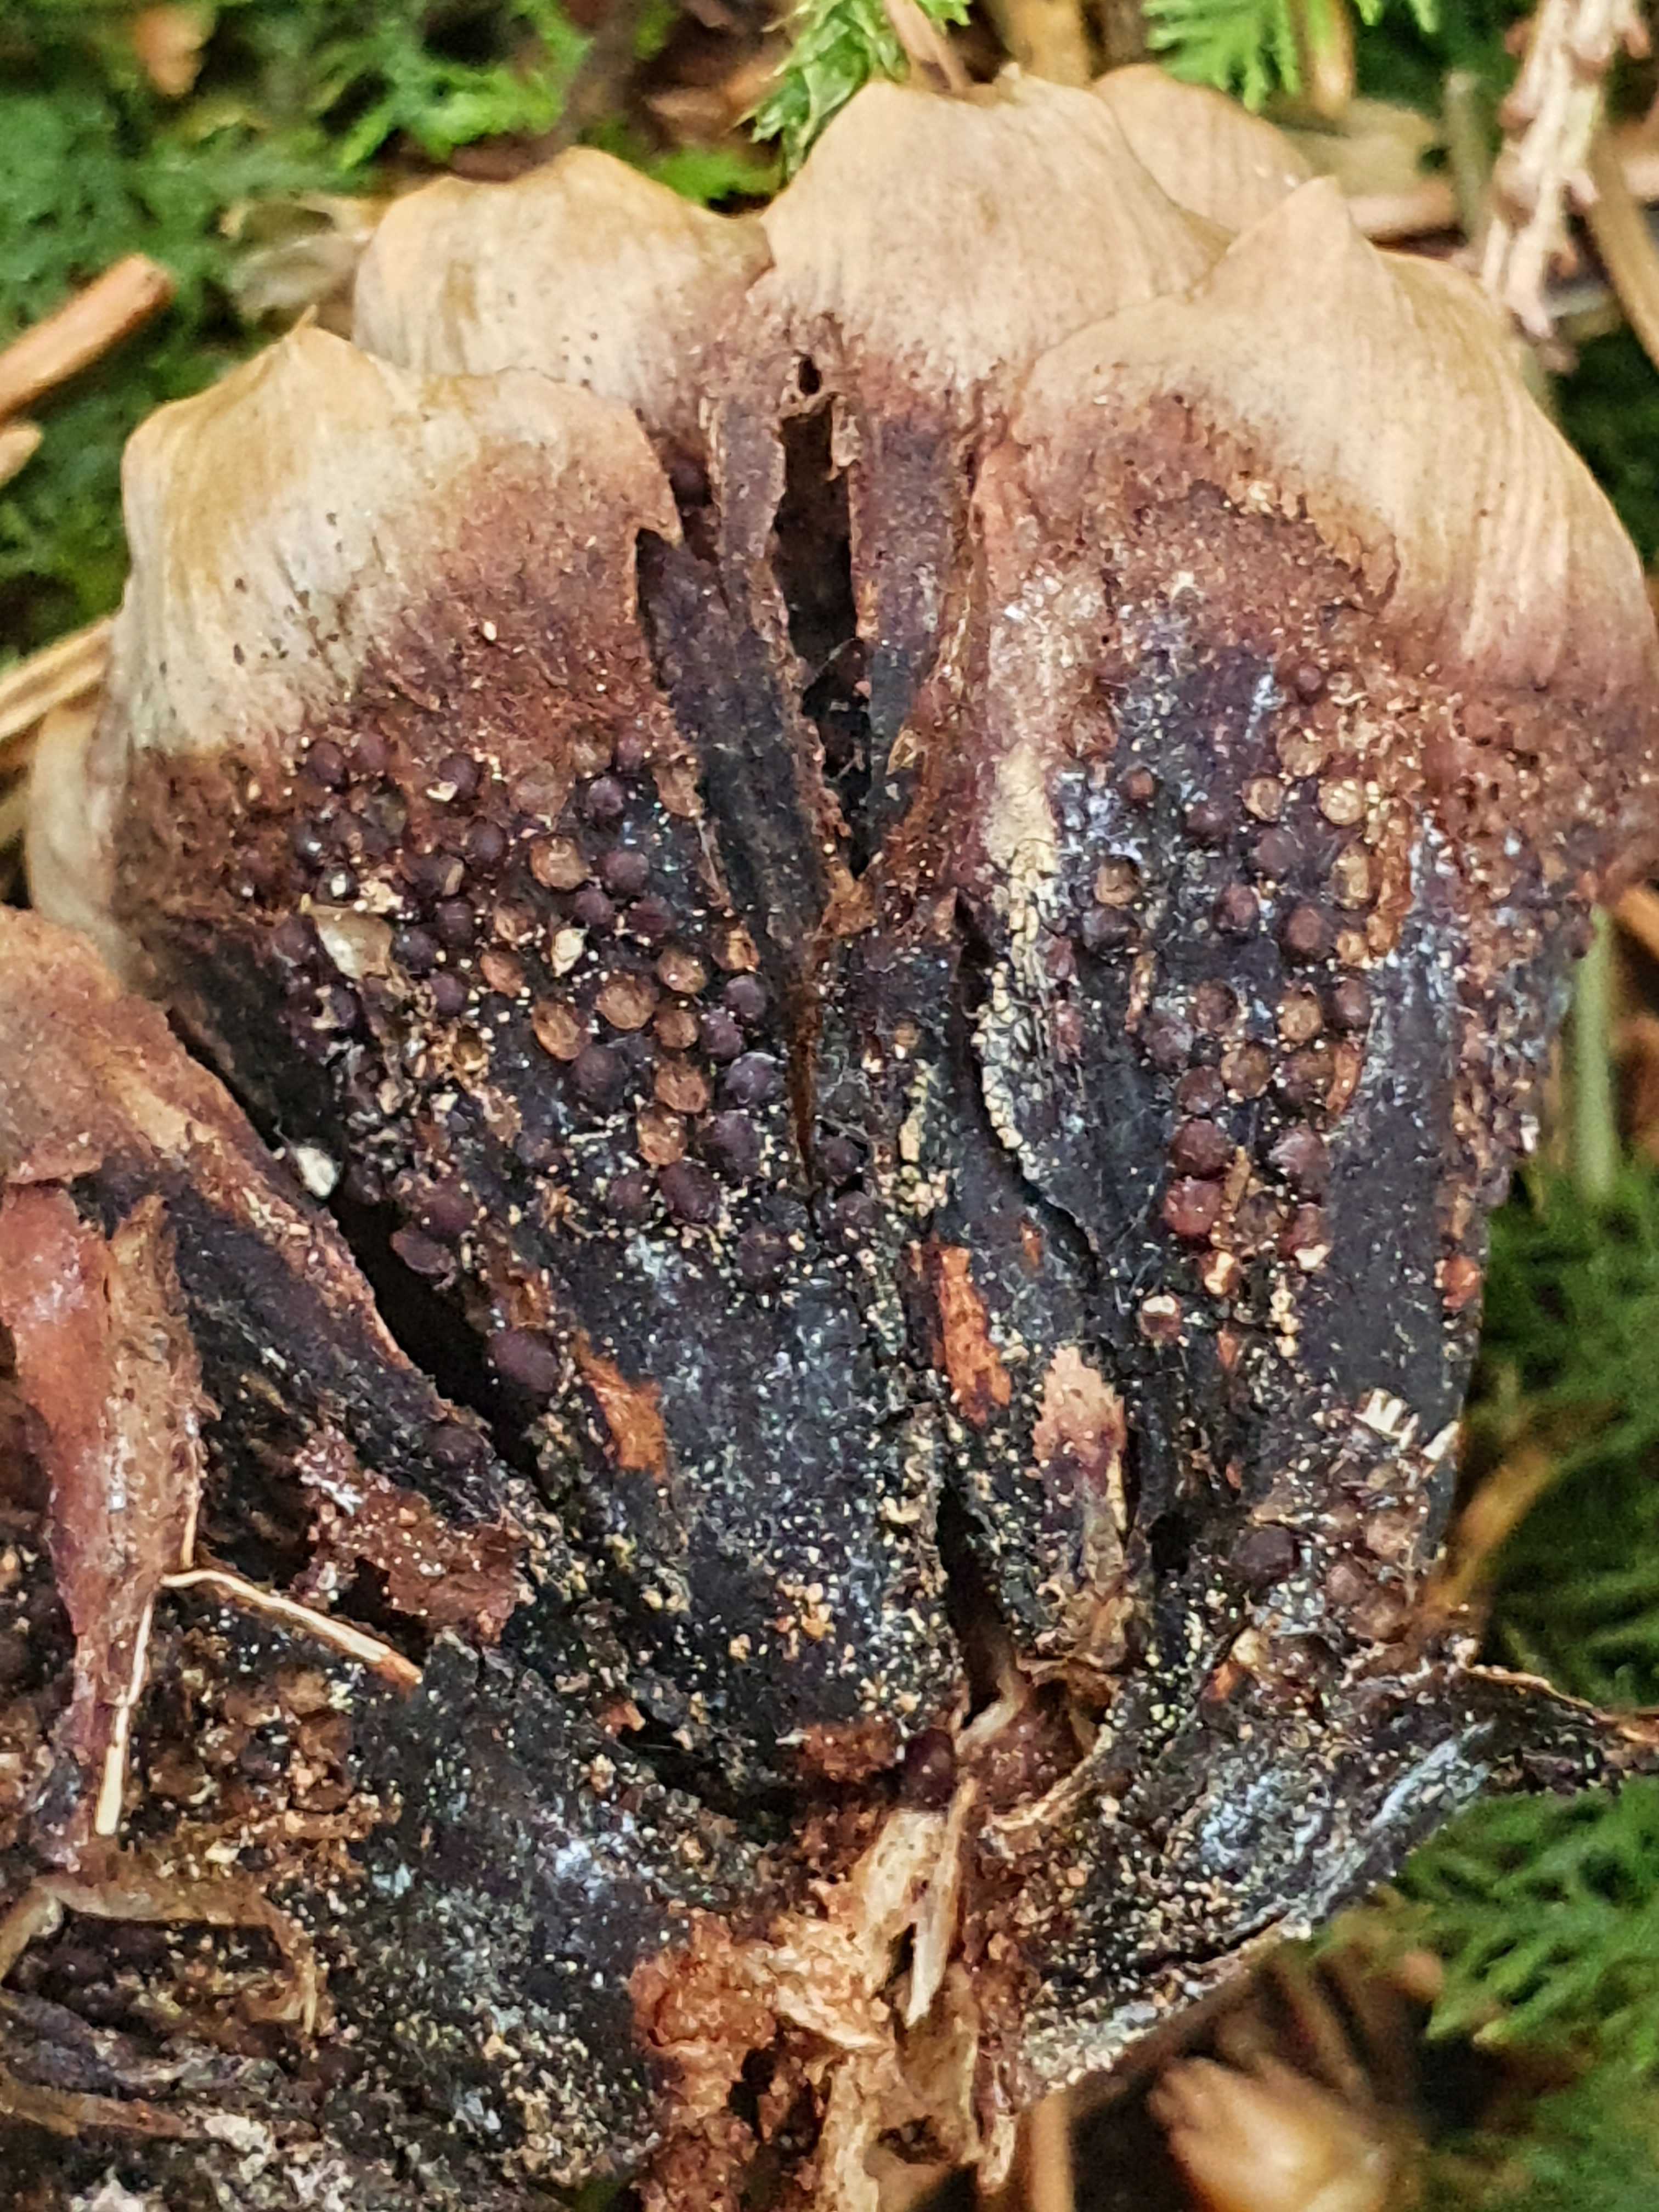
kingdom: Fungi
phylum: Basidiomycota
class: Pucciniomycetes
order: Pucciniales
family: Pucciniastraceae
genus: Thekopsora
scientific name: Thekopsora areolata
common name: grankogle-nålerust
